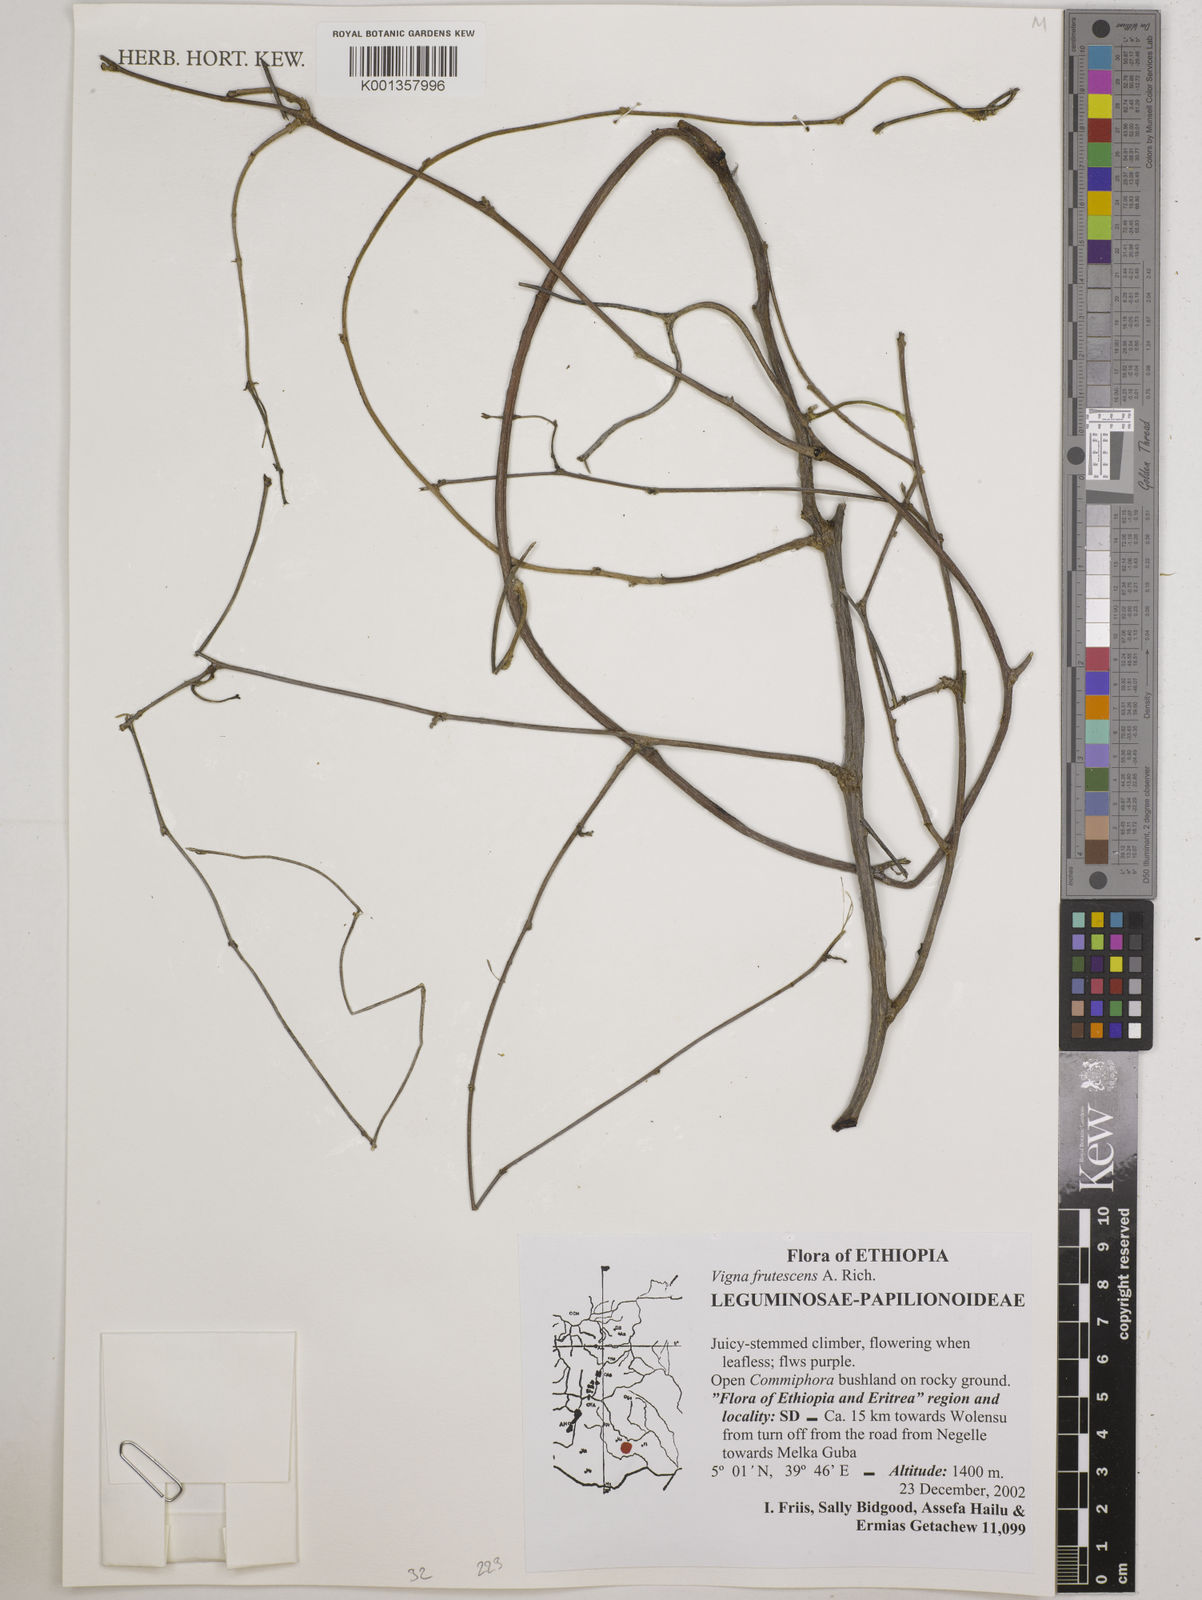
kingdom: Plantae
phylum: Tracheophyta
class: Magnoliopsida
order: Fabales
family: Fabaceae
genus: Vigna
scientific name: Vigna frutescens
